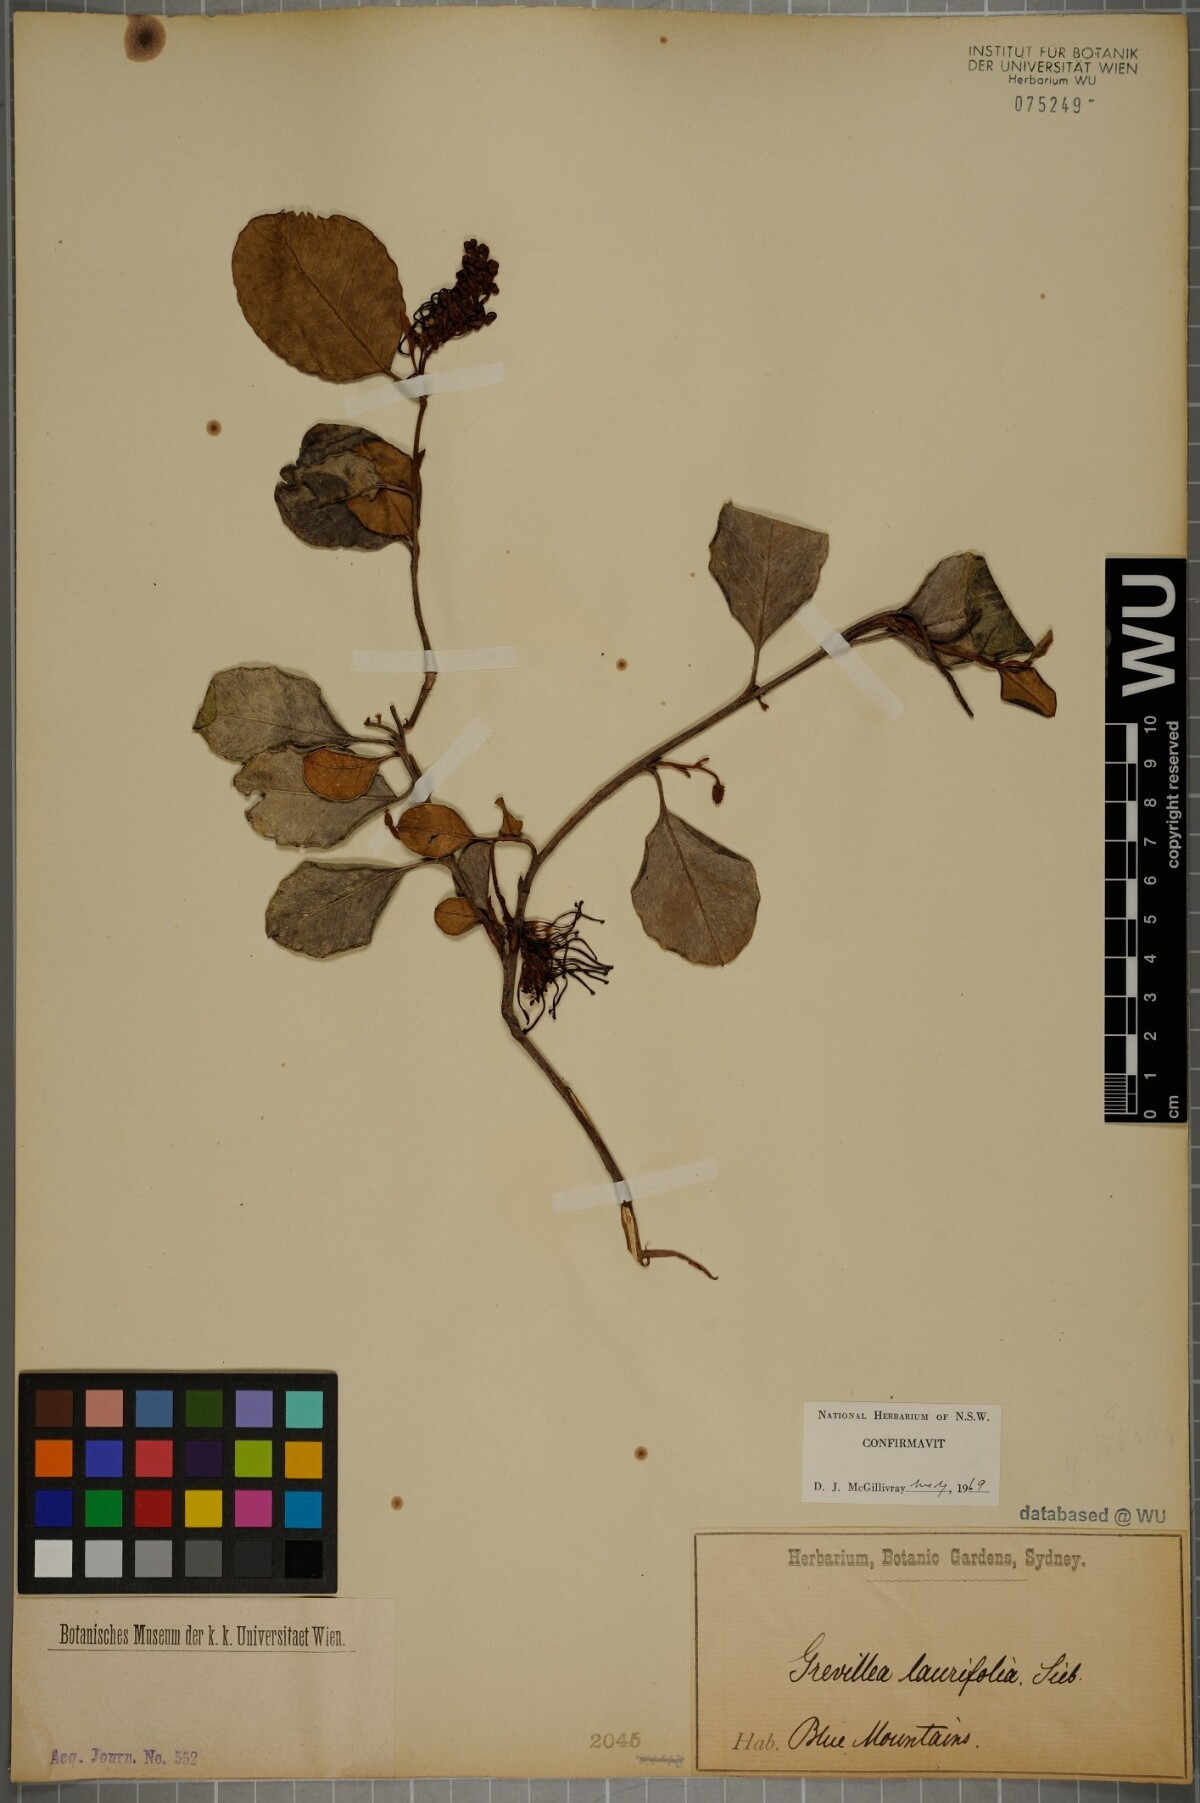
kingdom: Plantae
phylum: Tracheophyta
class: Magnoliopsida
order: Proteales
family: Proteaceae
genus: Grevillea
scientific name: Grevillea laurifolia
